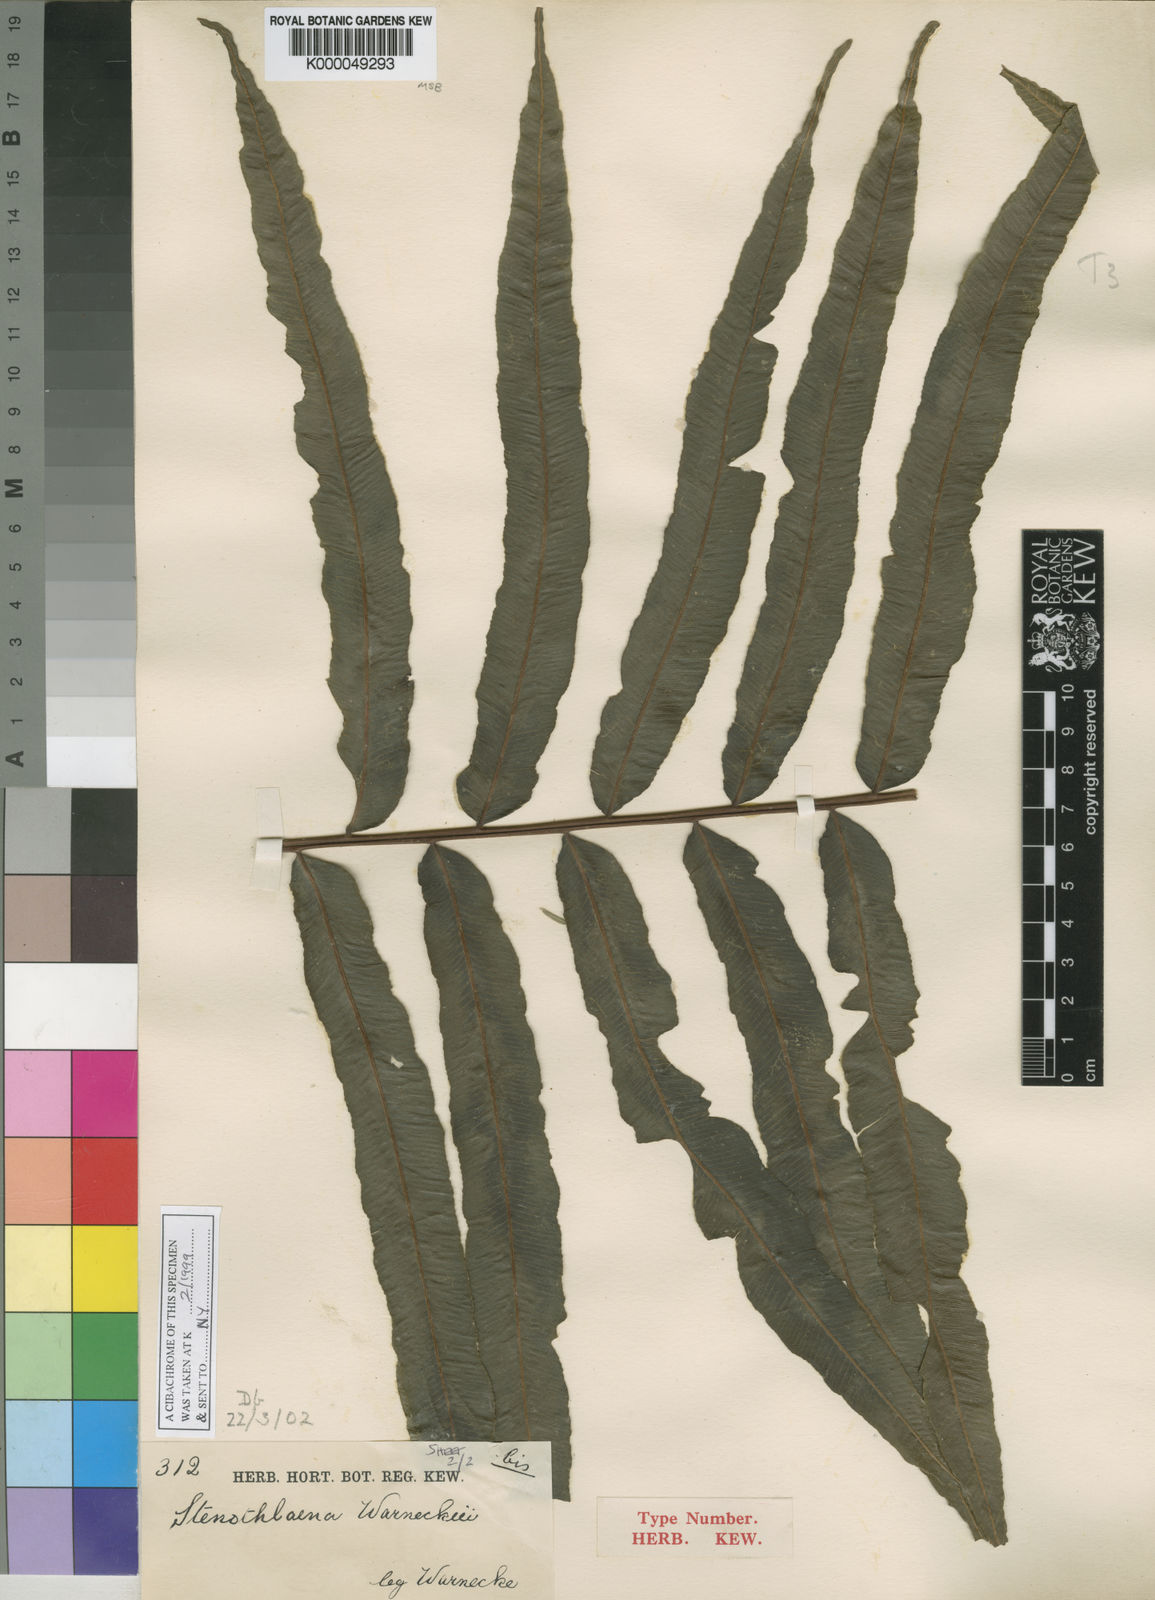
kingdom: Plantae
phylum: Tracheophyta
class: Polypodiopsida
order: Polypodiales
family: Lomariopsidaceae
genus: Lomariopsis
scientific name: Lomariopsis warneckei
